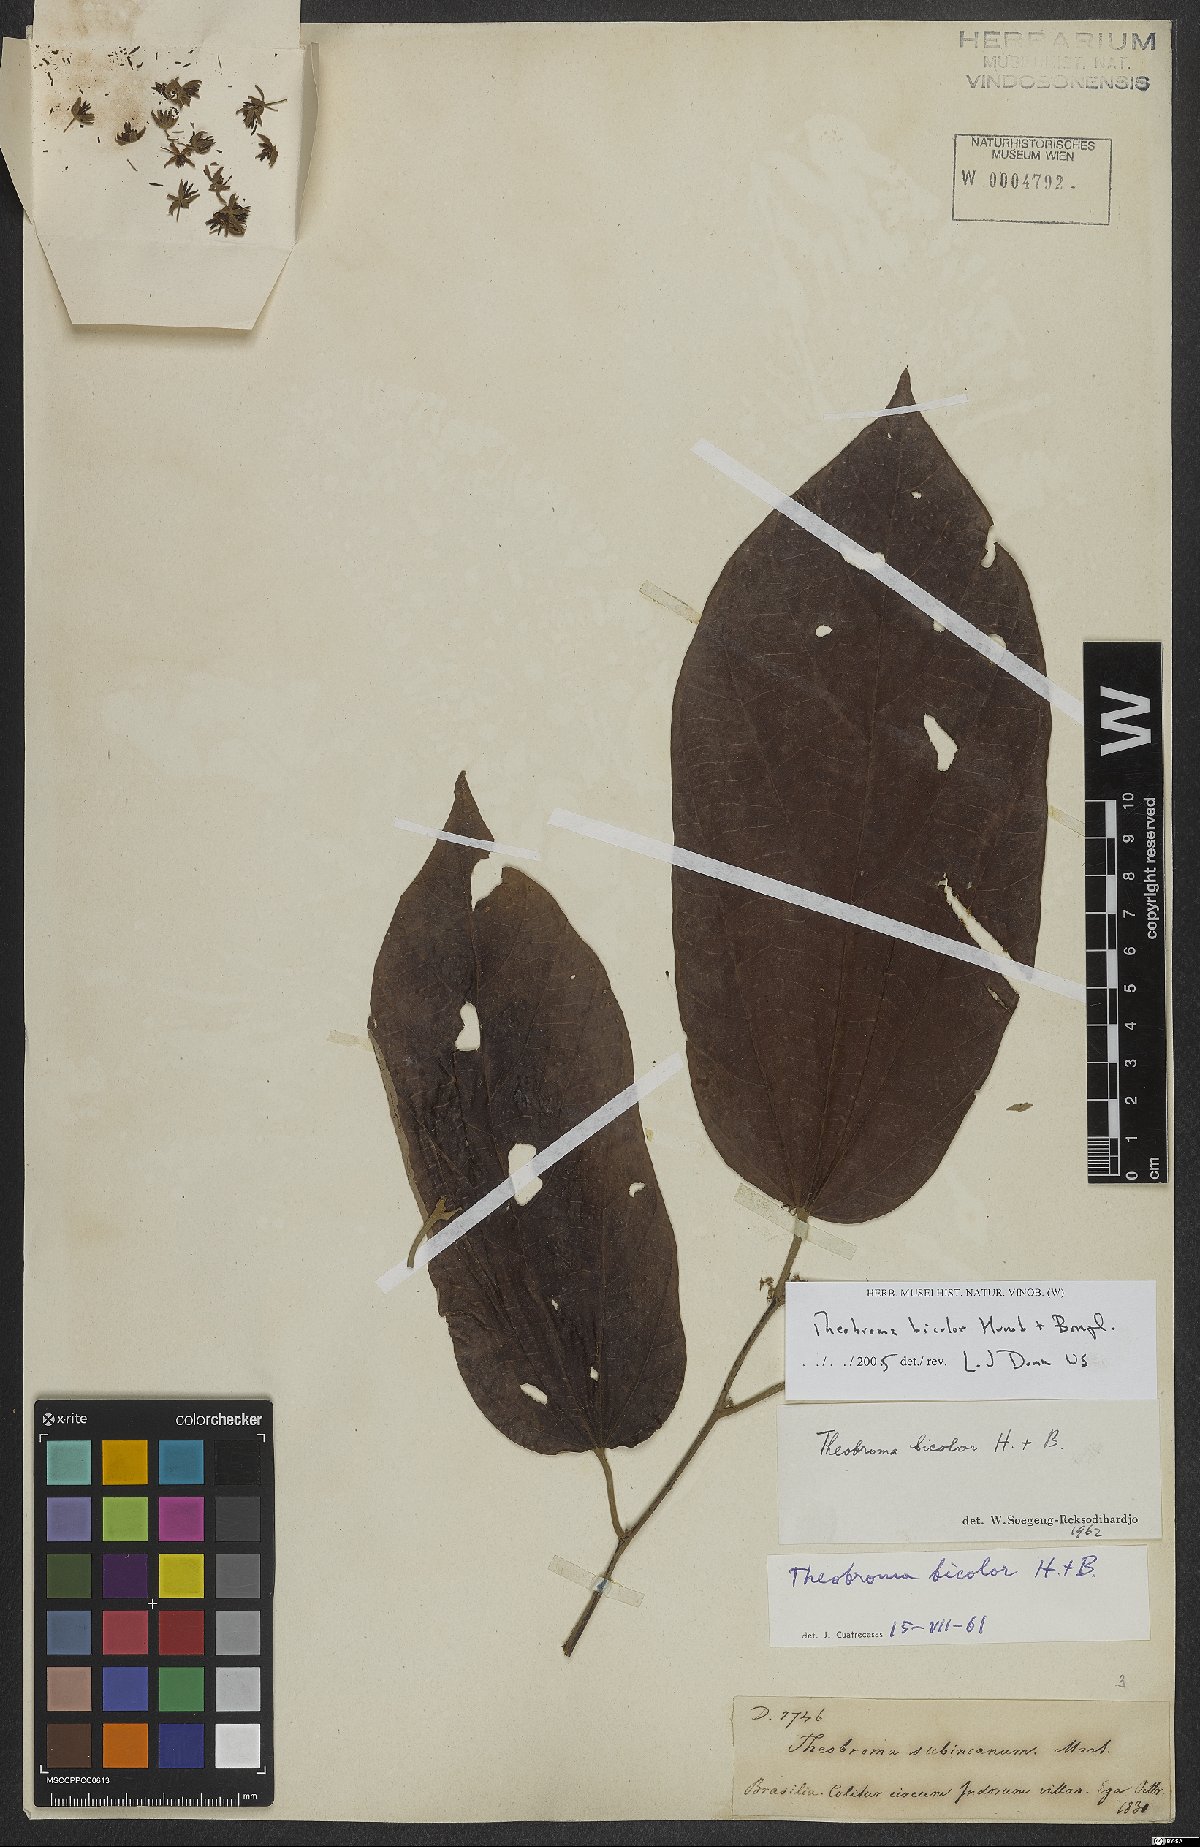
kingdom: Plantae
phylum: Tracheophyta
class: Magnoliopsida
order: Malvales
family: Malvaceae
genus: Theobroma
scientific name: Theobroma bicolor
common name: Macambo tree
